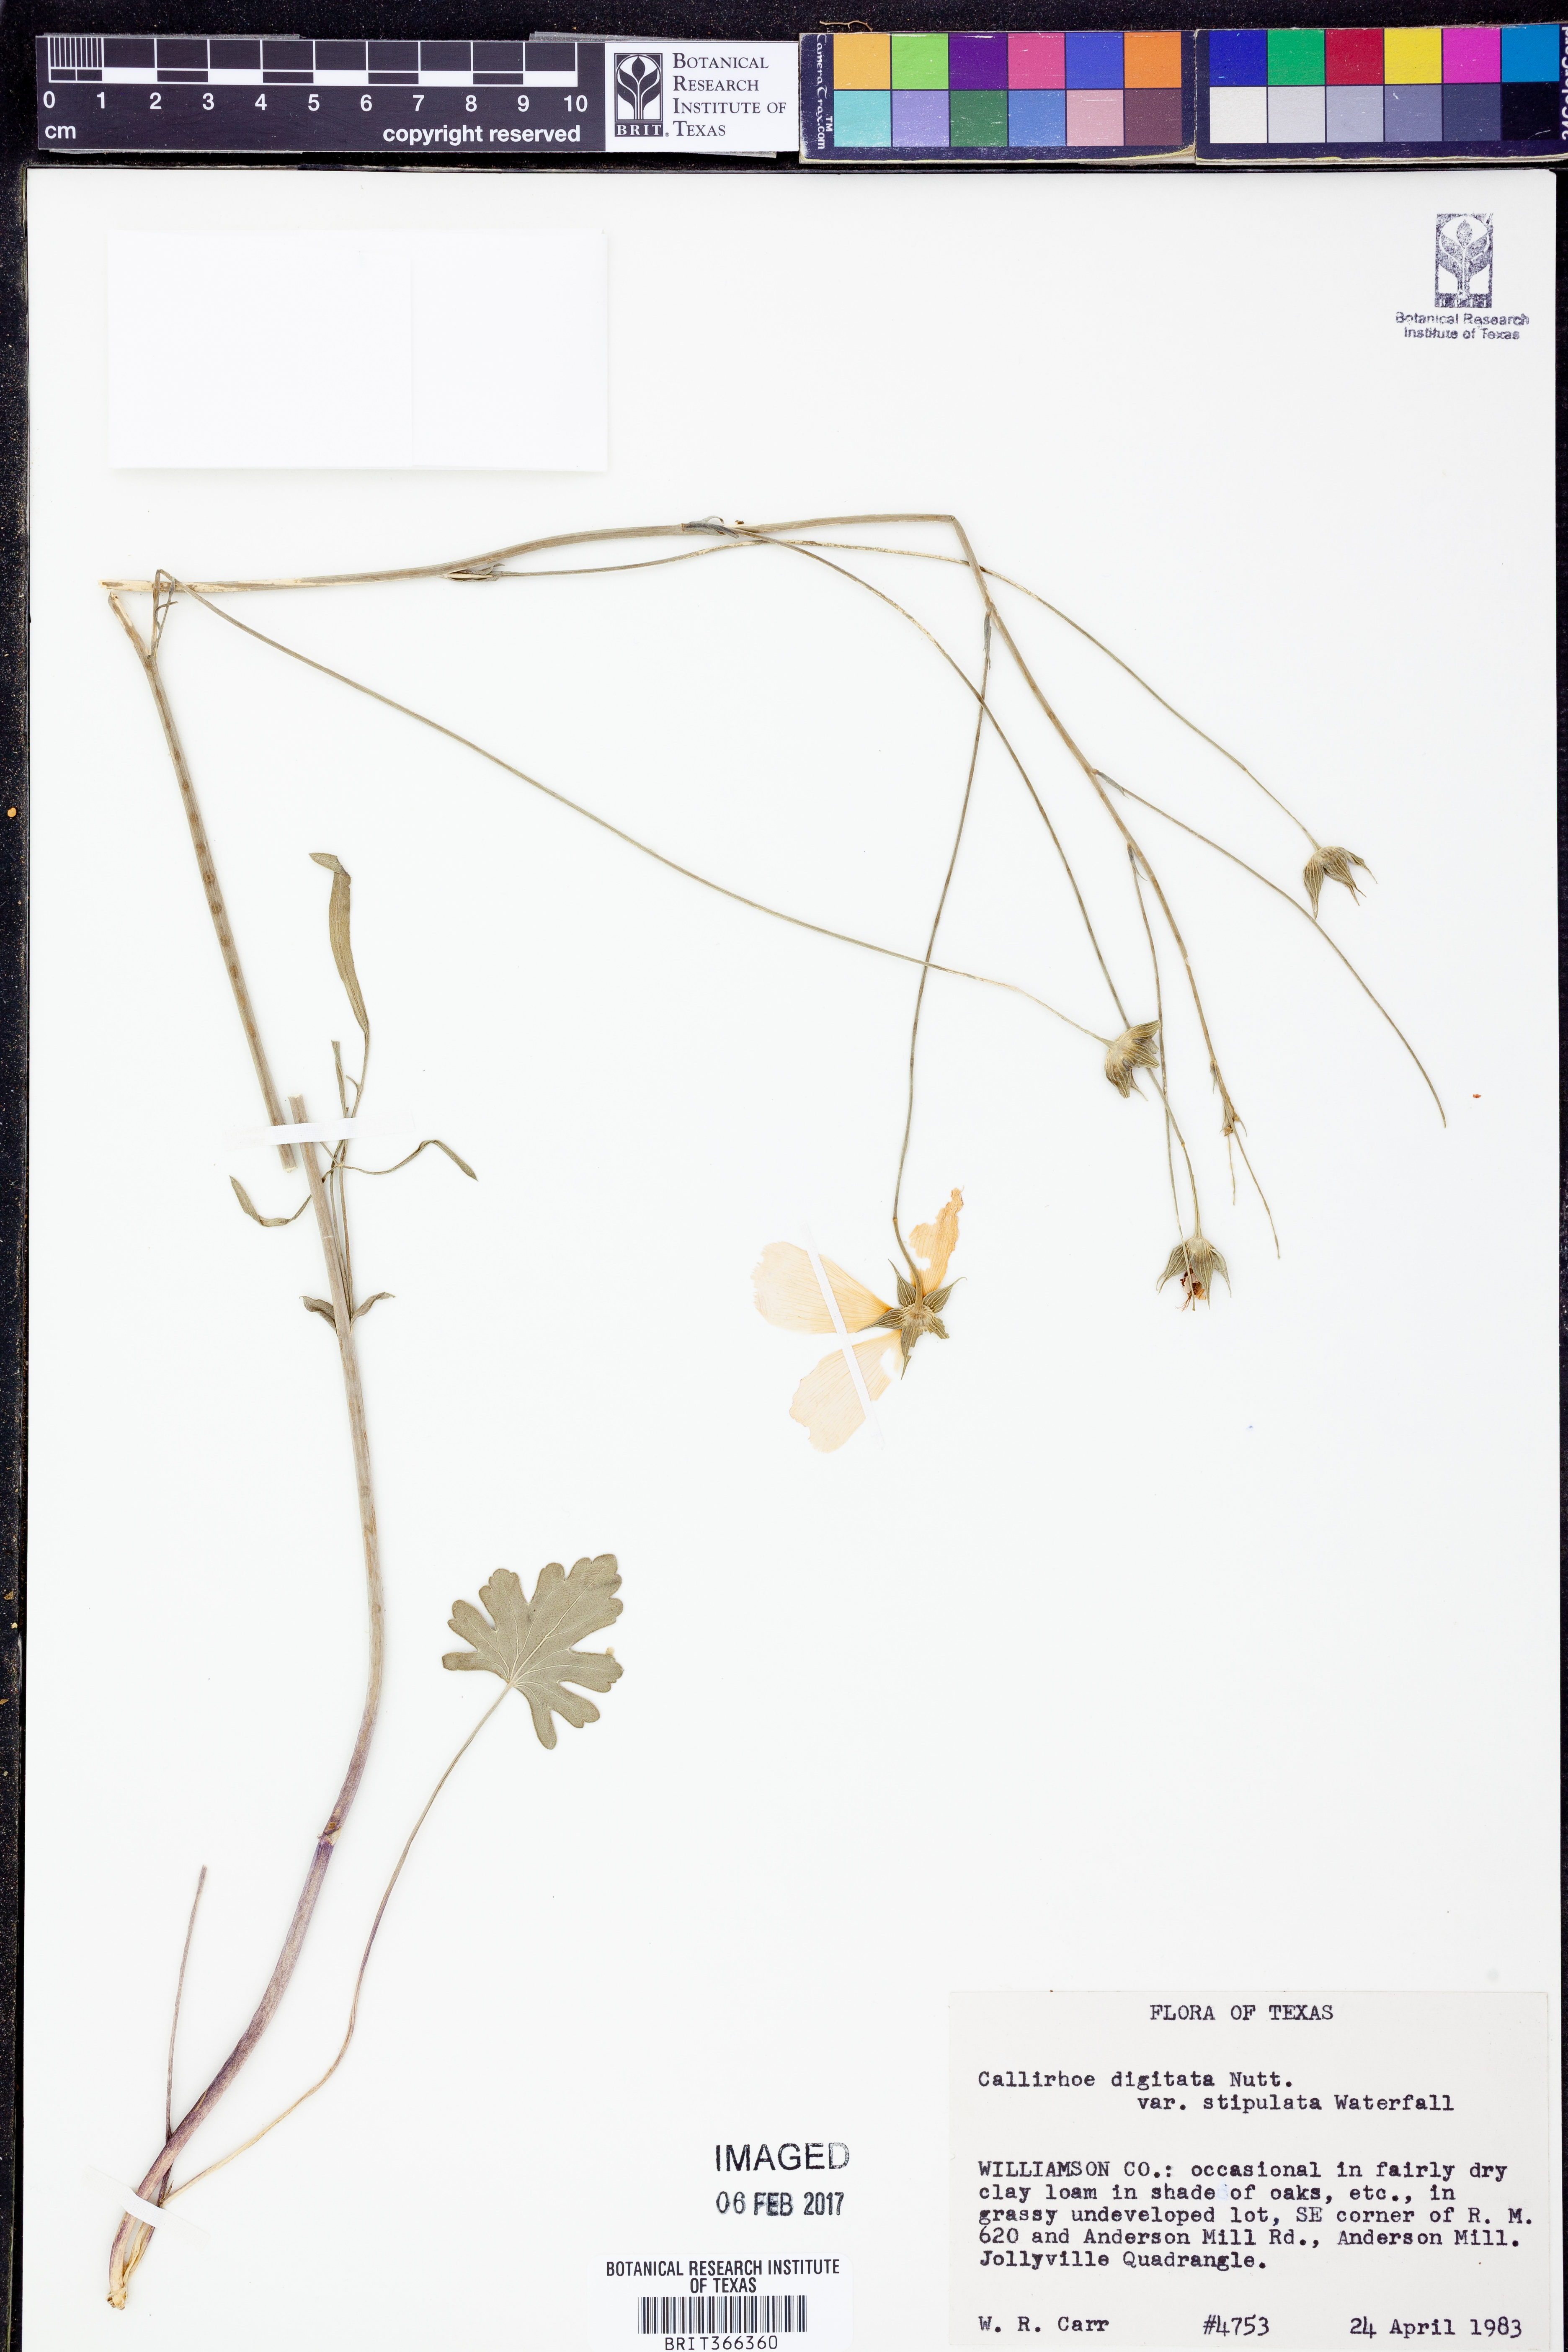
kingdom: Plantae
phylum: Tracheophyta
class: Magnoliopsida
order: Malvales
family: Malvaceae
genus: Callirhoe
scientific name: Callirhoe pedata
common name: Finger poppy-mallow
